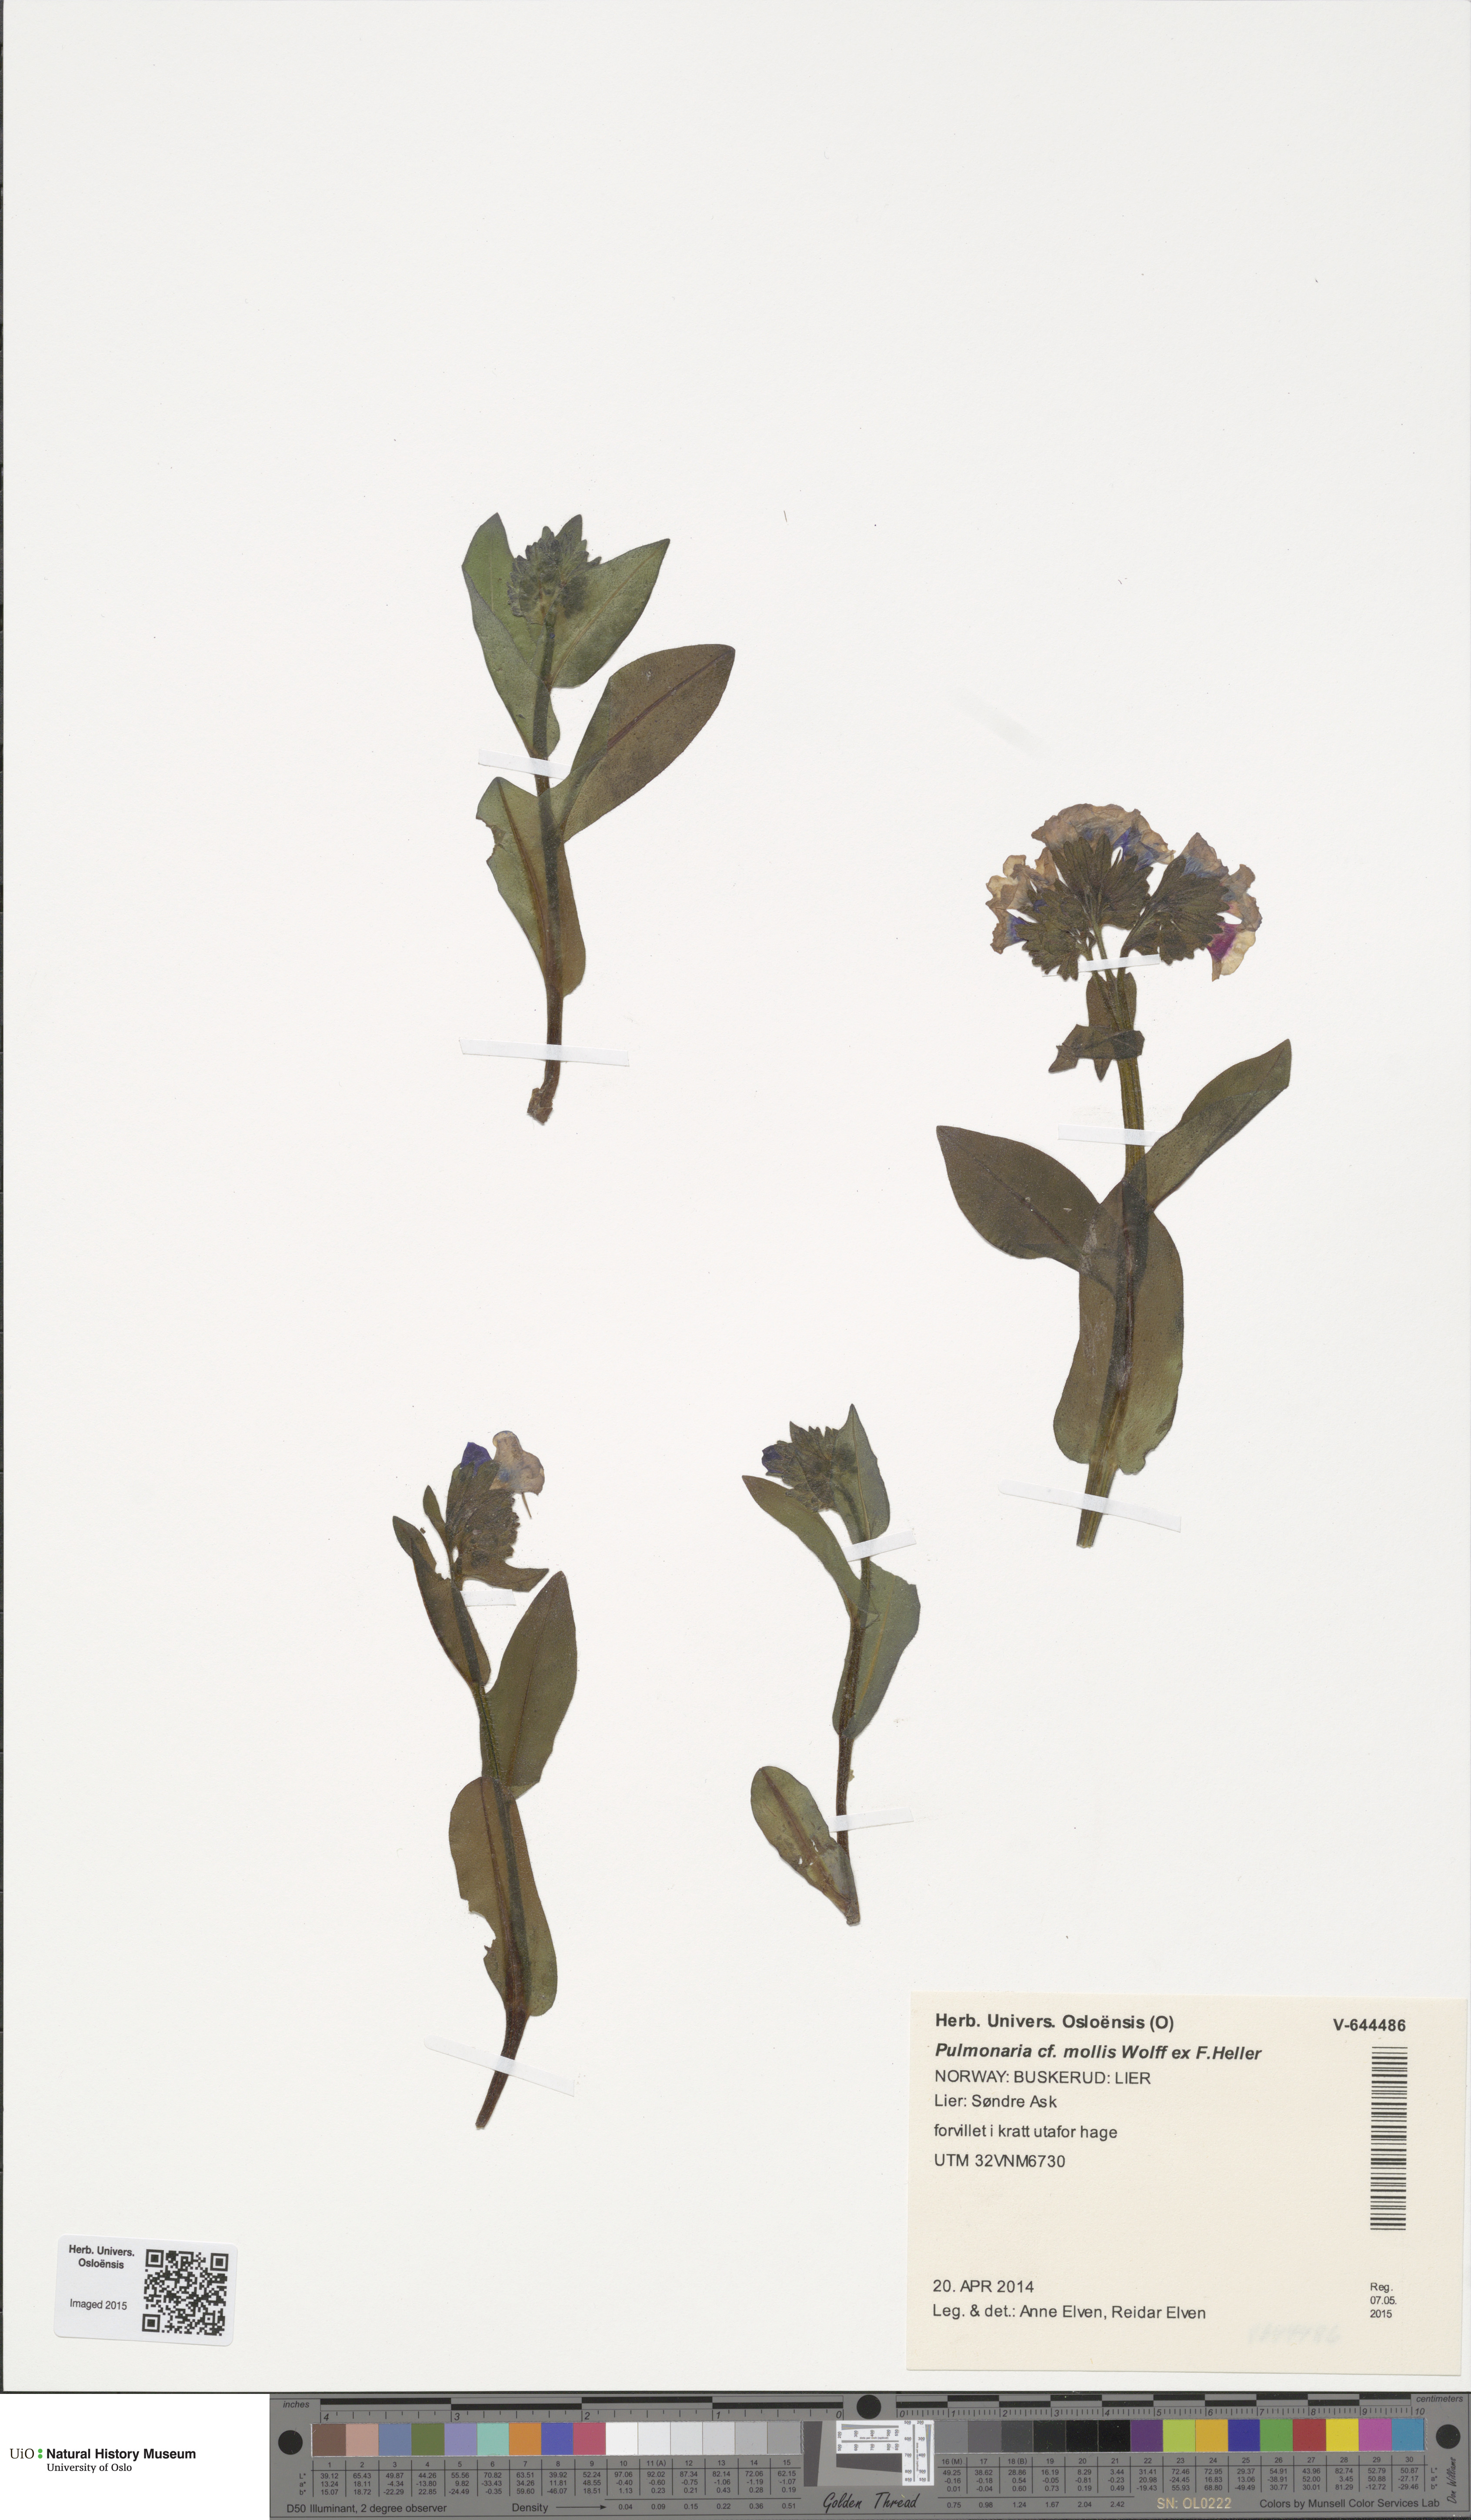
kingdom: Plantae
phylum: Tracheophyta
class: Magnoliopsida
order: Boraginales
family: Boraginaceae
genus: Pulmonaria
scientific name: Pulmonaria mollis
